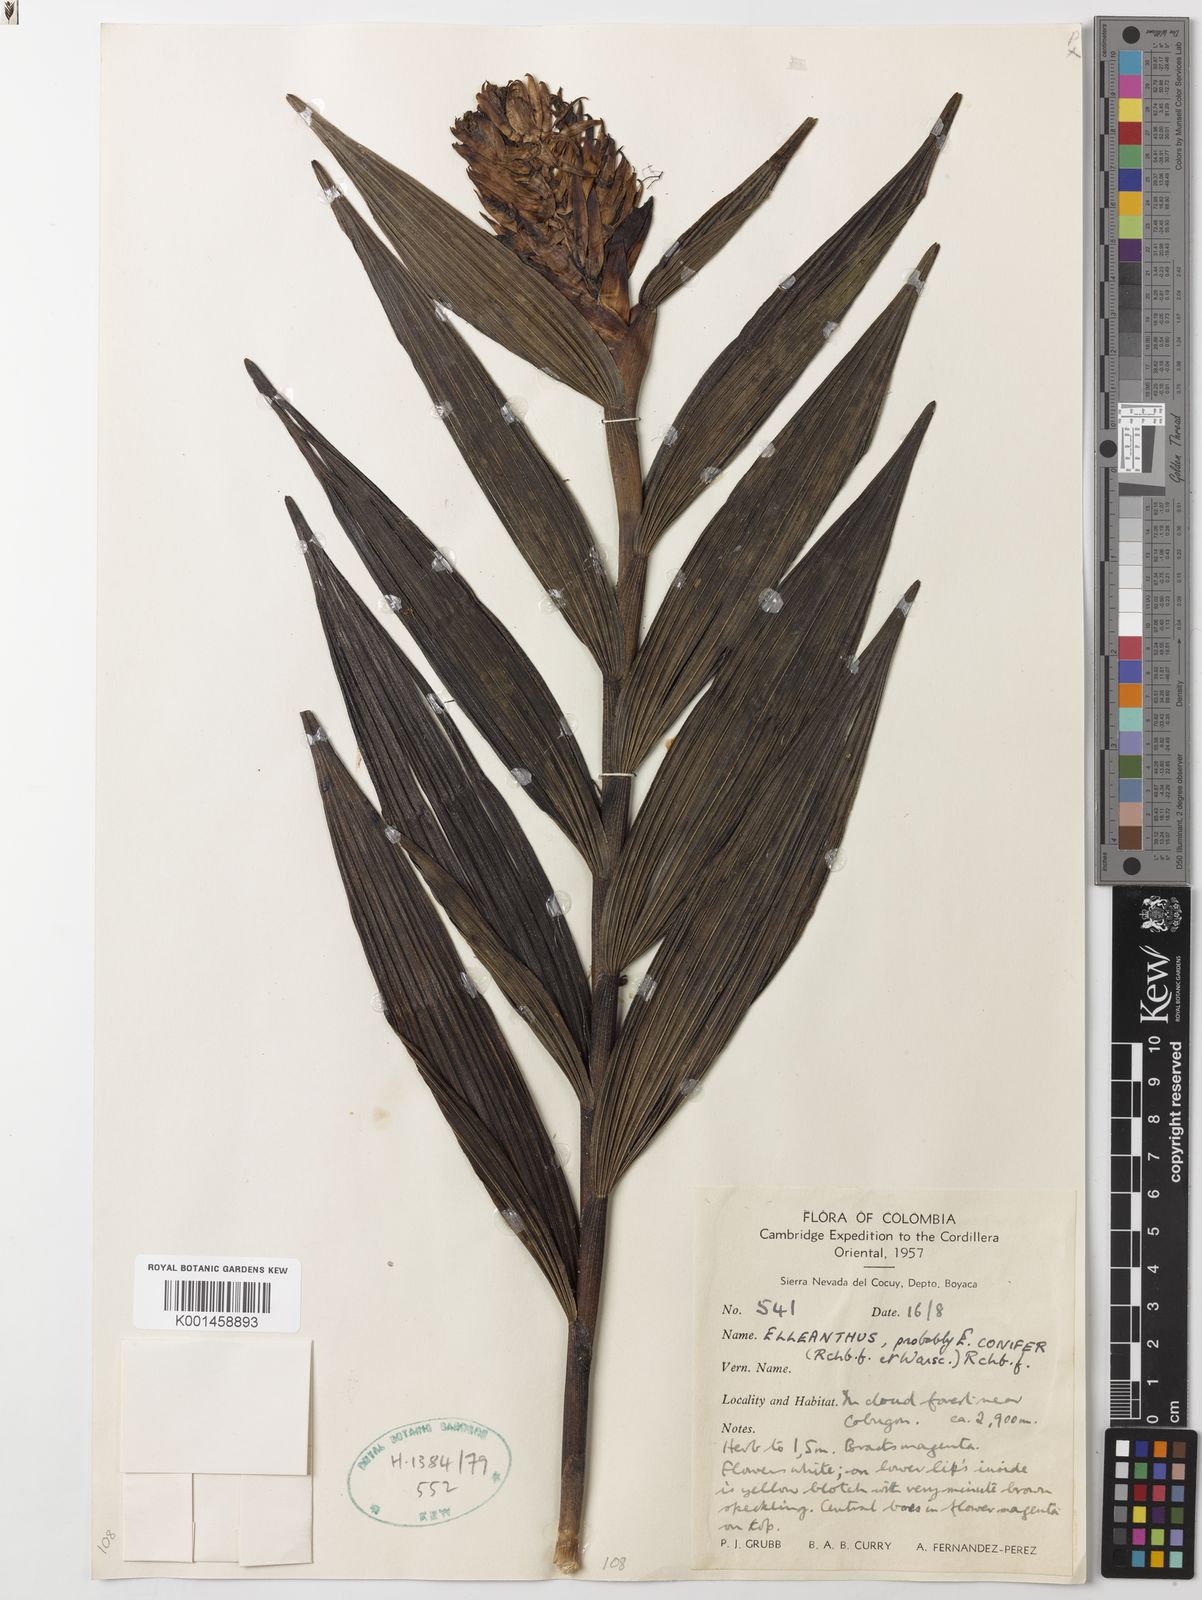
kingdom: Plantae
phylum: Tracheophyta
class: Liliopsida
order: Asparagales
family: Orchidaceae
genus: Elleanthus
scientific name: Elleanthus conifer
